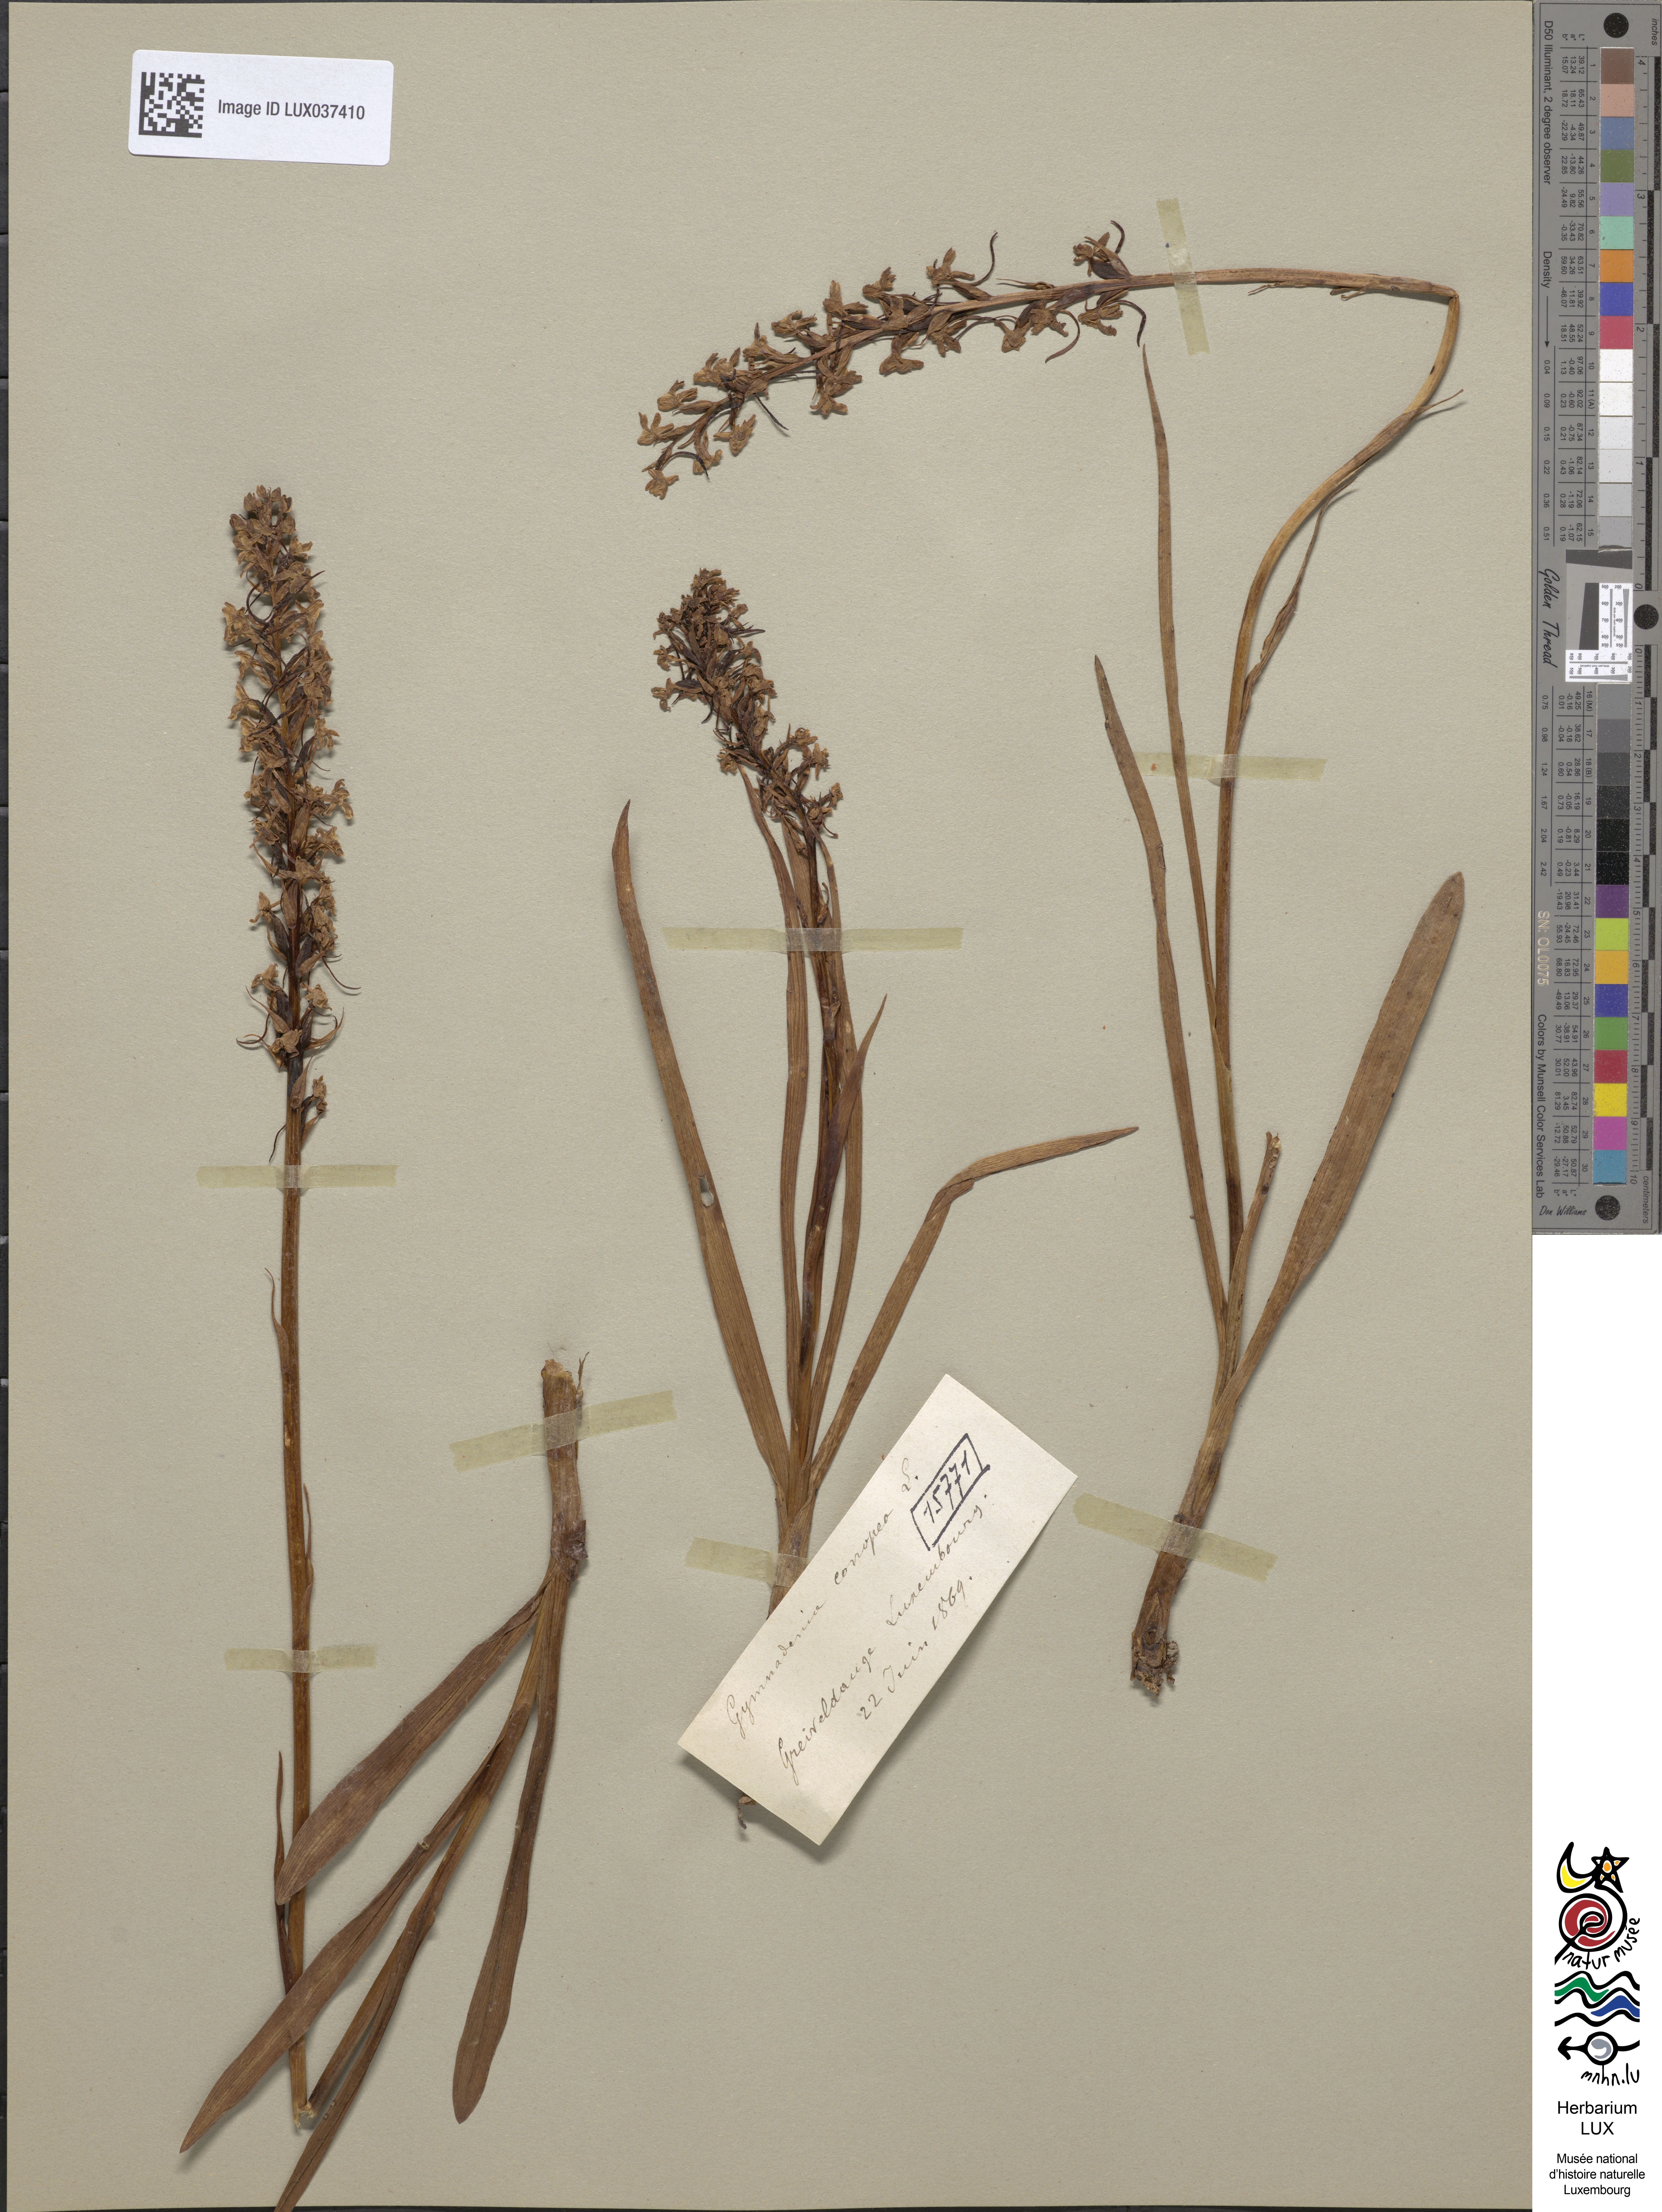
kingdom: Plantae
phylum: Tracheophyta
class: Liliopsida
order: Asparagales
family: Orchidaceae
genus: Gymnadenia
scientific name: Gymnadenia conopsea
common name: Fragrant orchid
